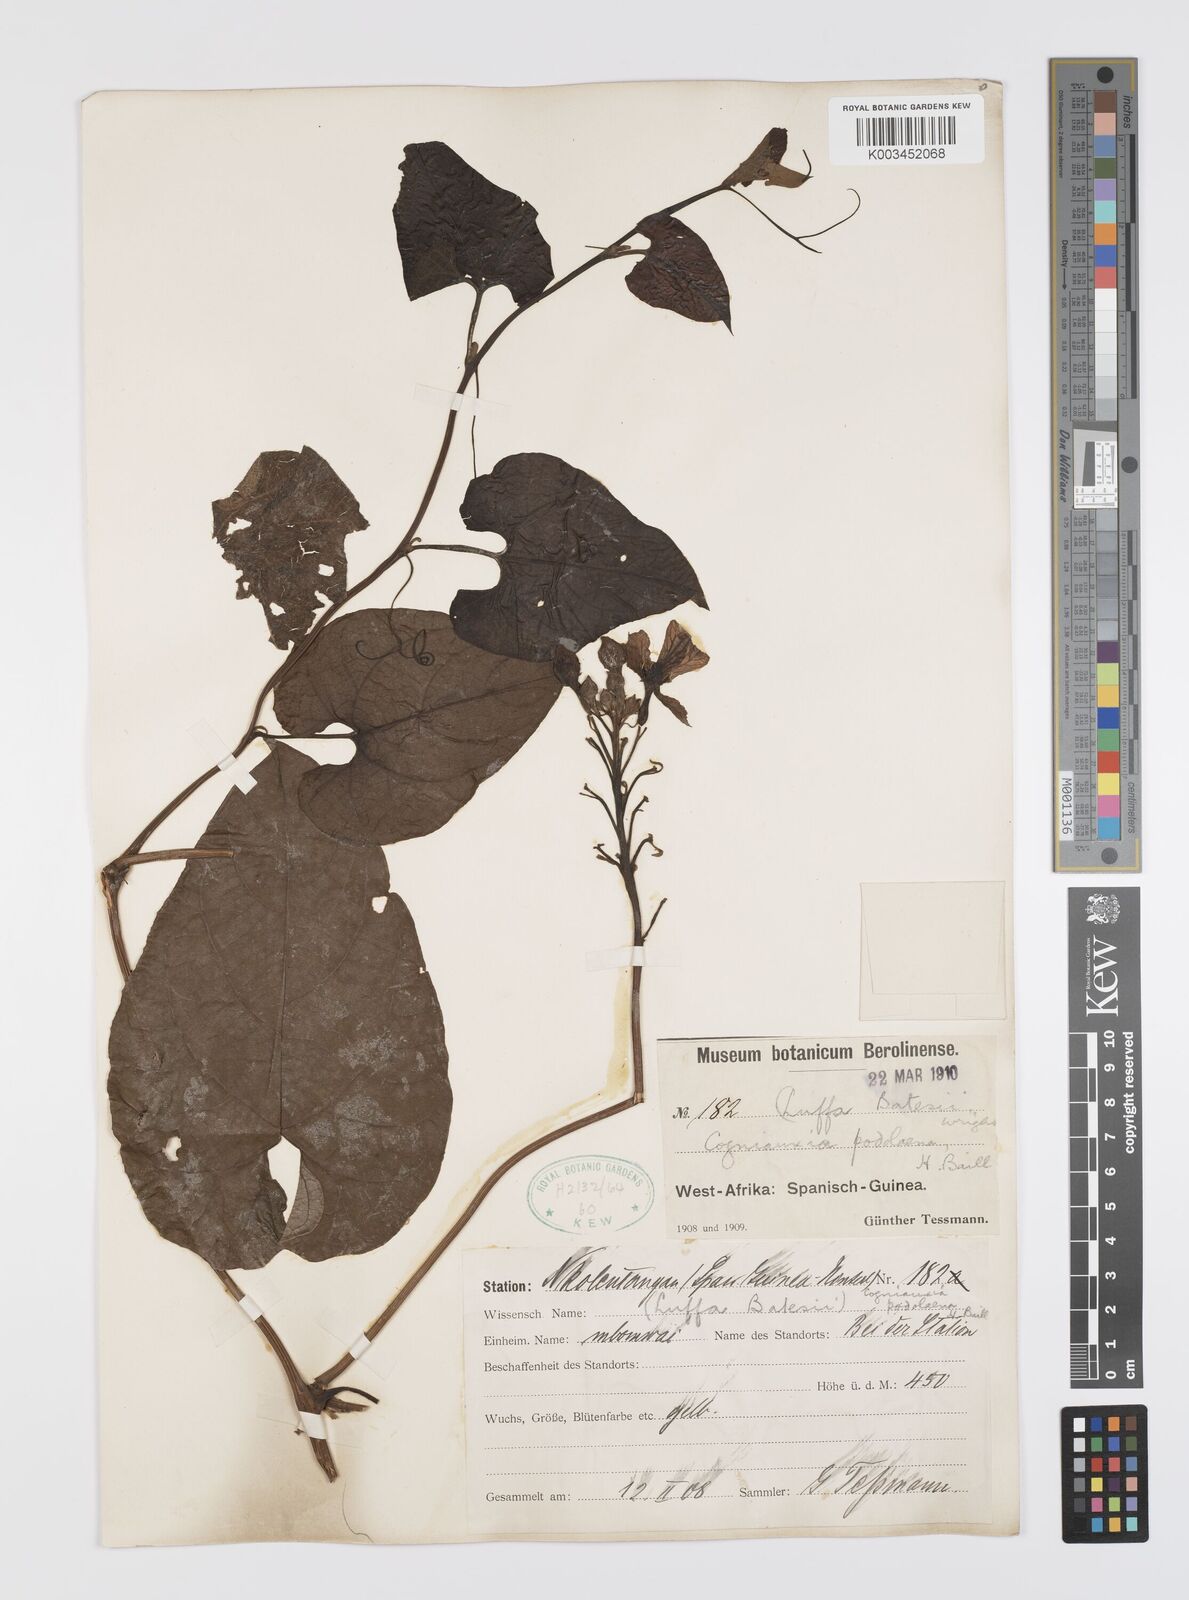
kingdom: Plantae
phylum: Tracheophyta
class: Magnoliopsida
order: Cucurbitales
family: Cucurbitaceae
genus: Cogniauxia
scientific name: Cogniauxia podolaena
